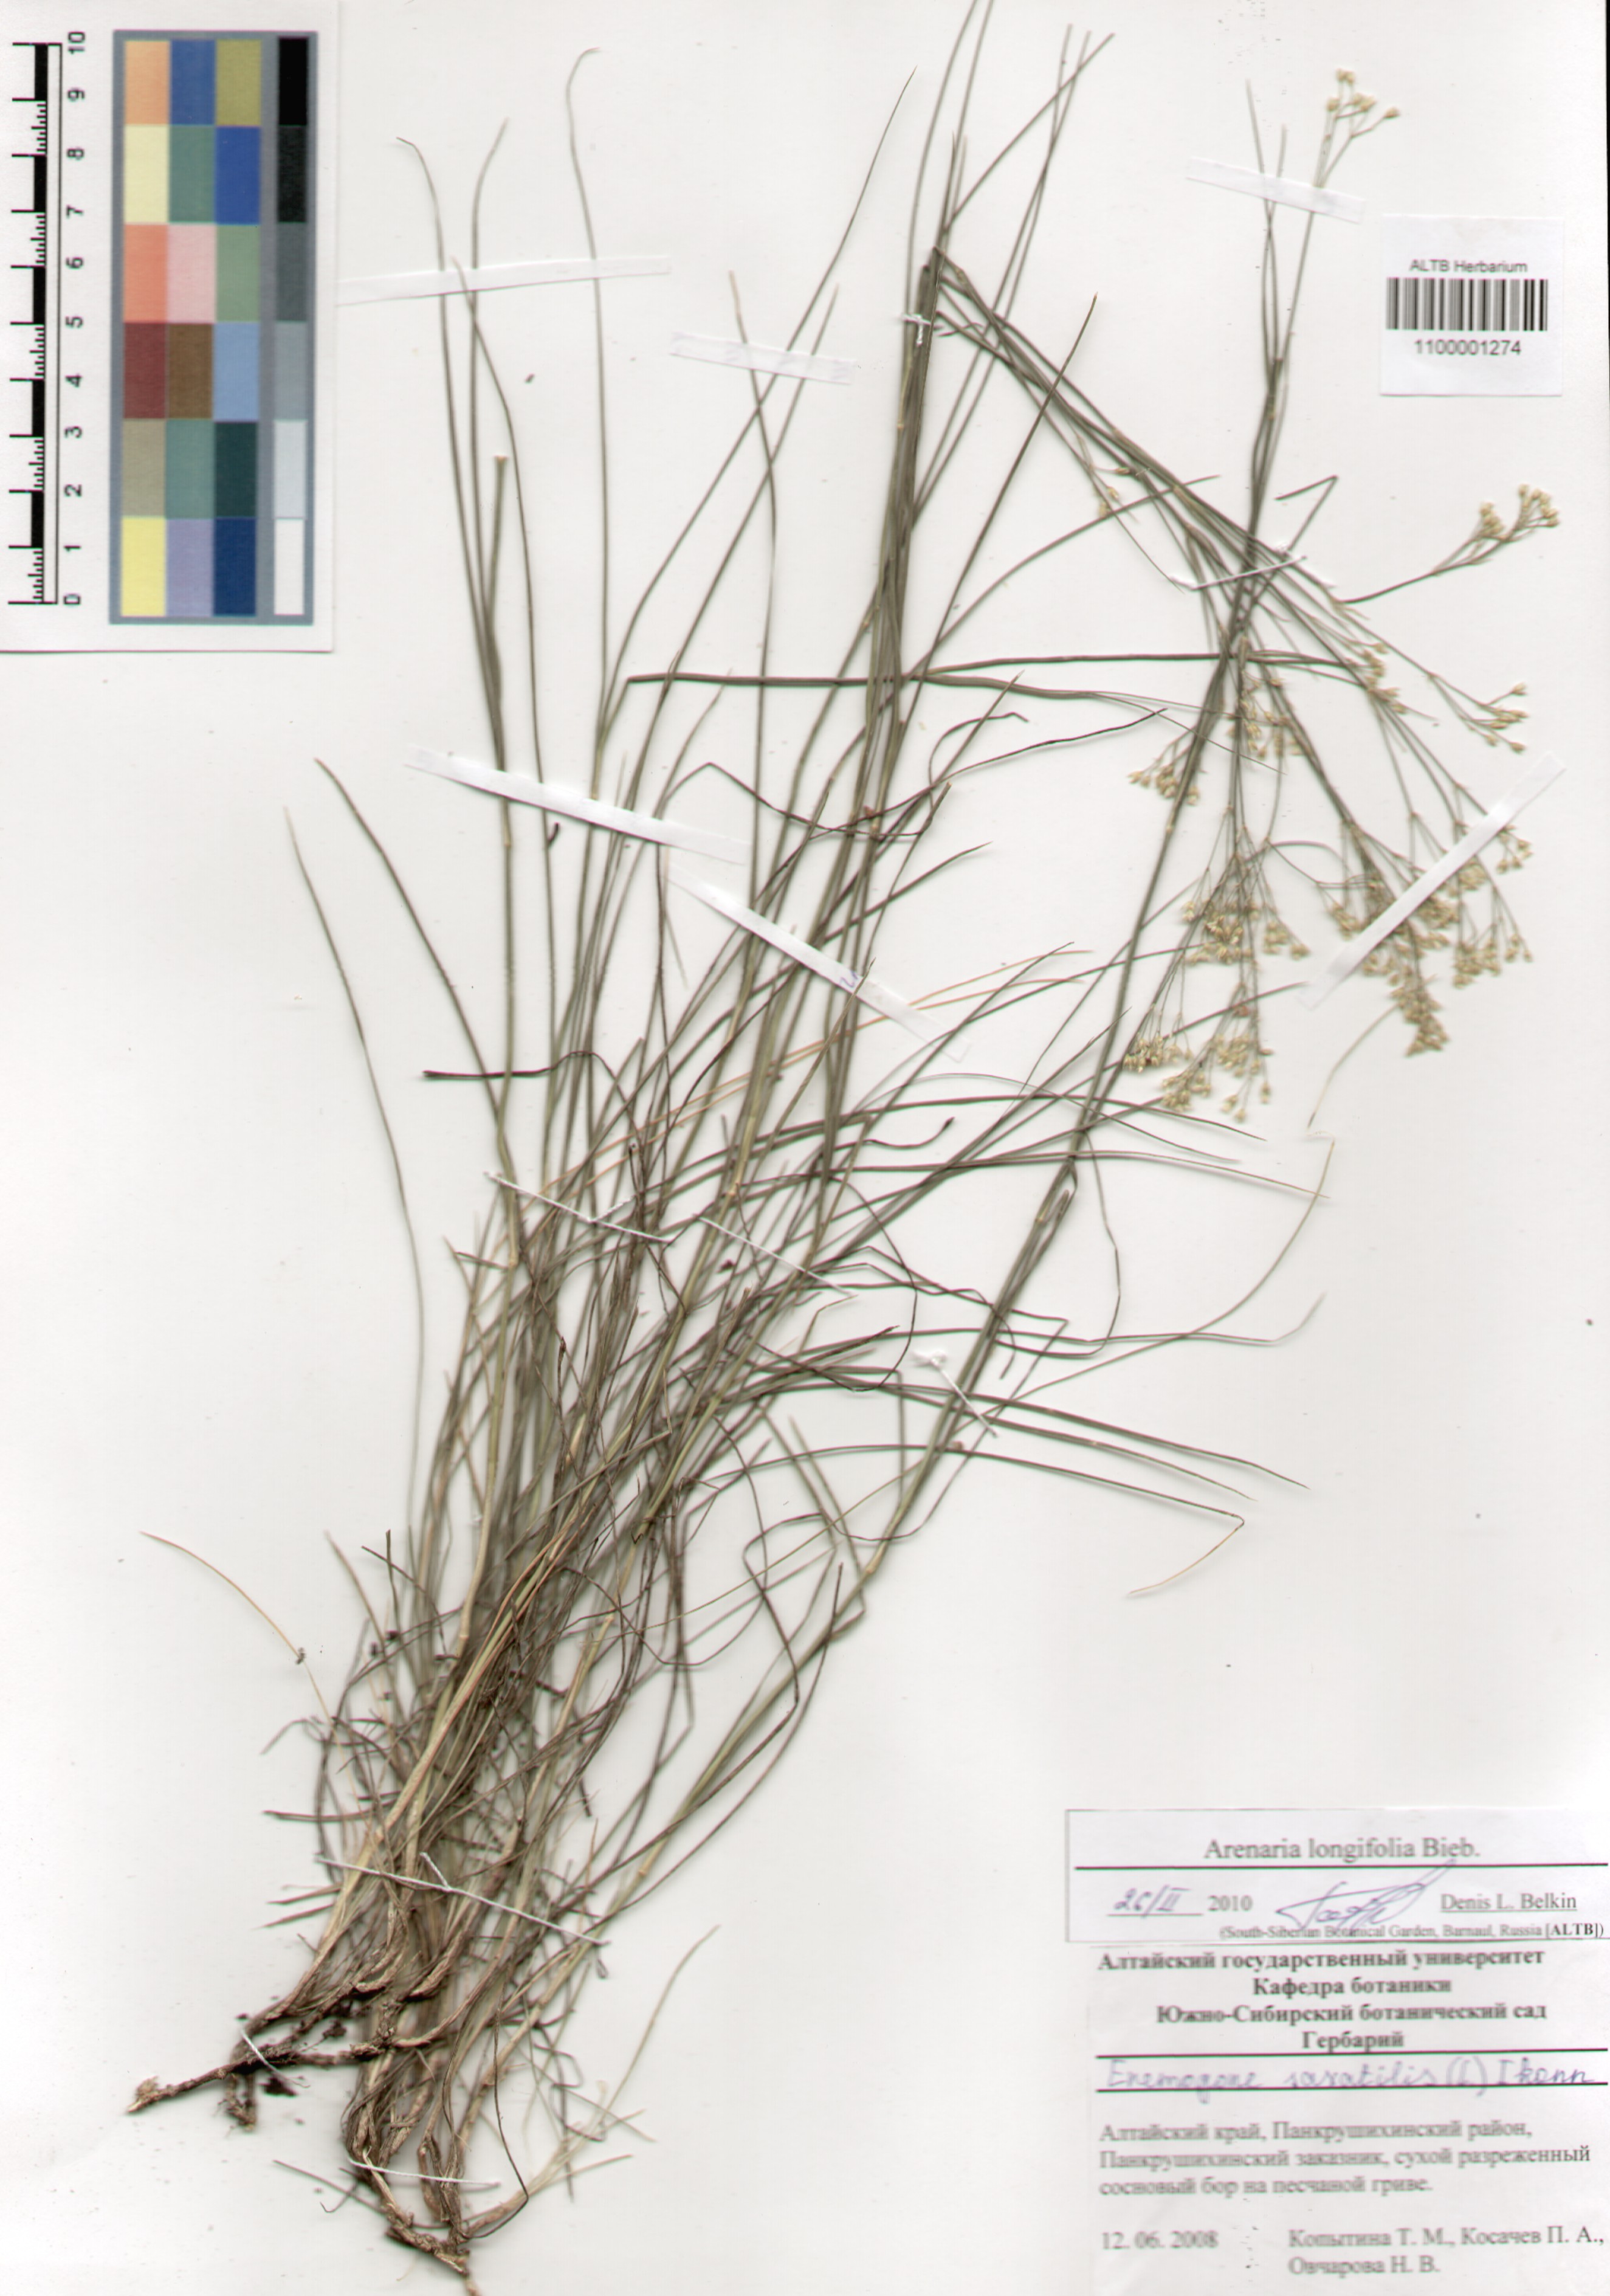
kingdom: Plantae
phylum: Tracheophyta
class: Magnoliopsida
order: Caryophyllales
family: Caryophyllaceae
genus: Eremogone
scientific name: Eremogone longifolia
